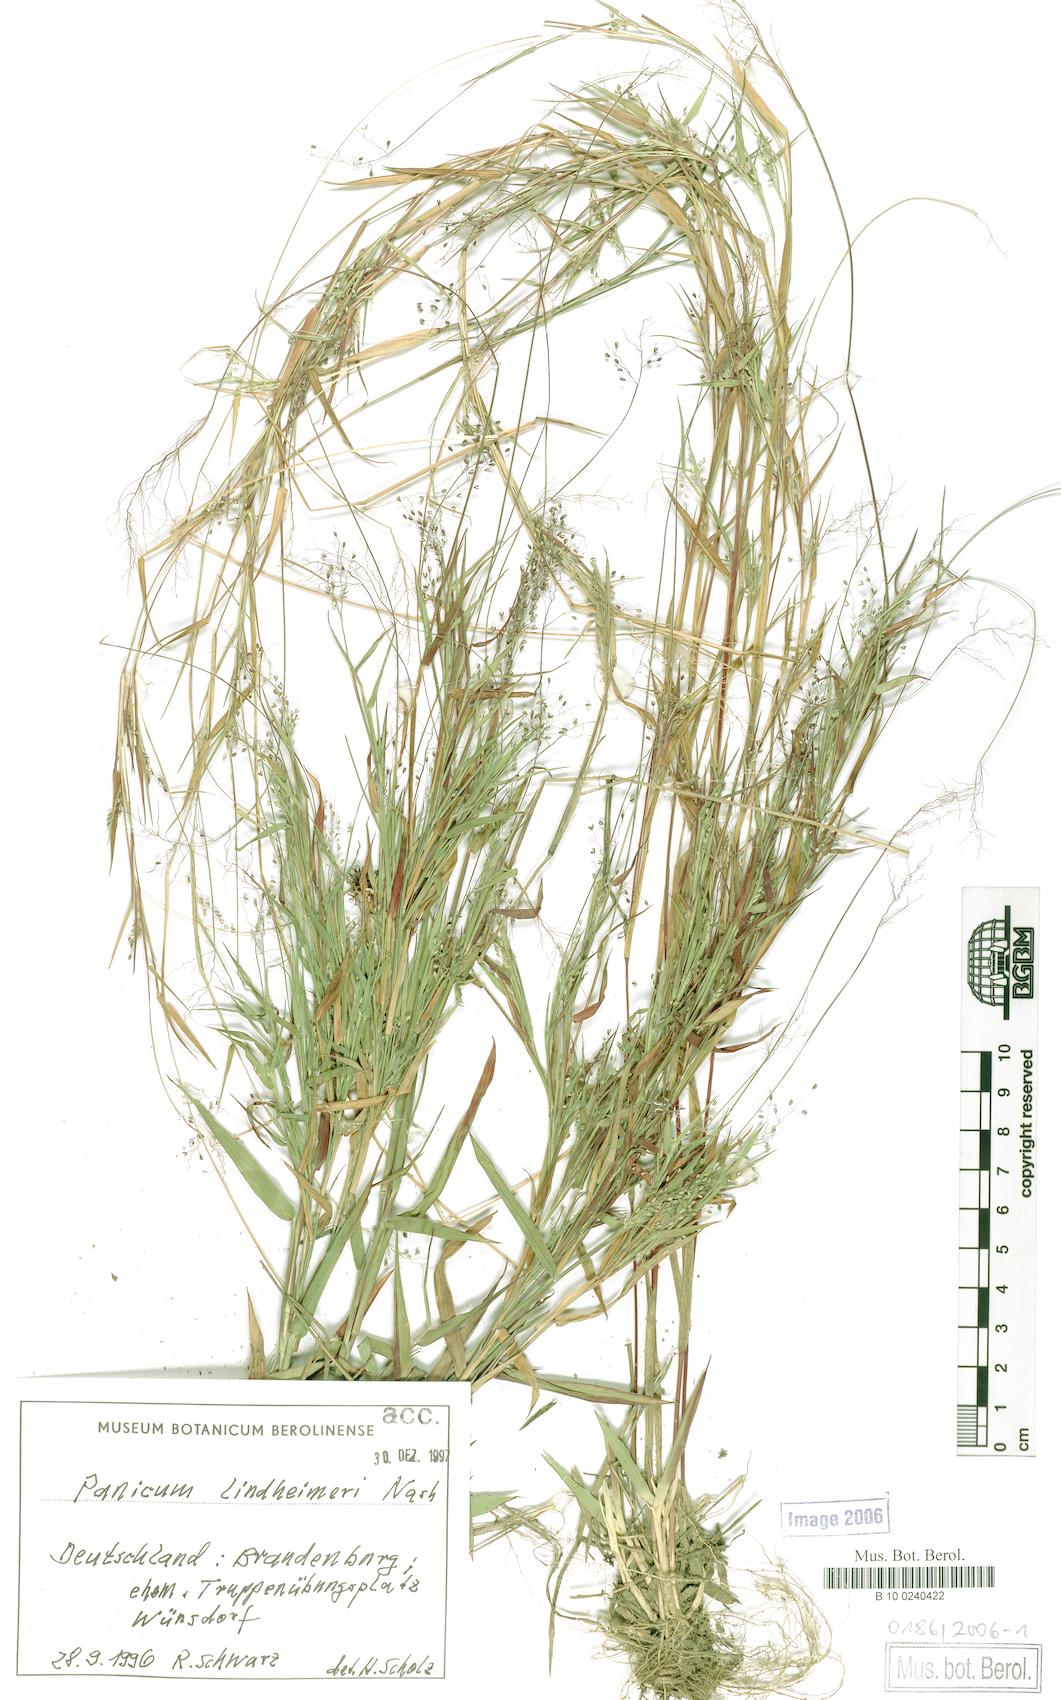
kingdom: Plantae
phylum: Tracheophyta
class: Liliopsida
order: Poales
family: Poaceae
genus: Dichanthelium
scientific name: Dichanthelium lindheimeri
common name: Lindheimer's panicgrass
